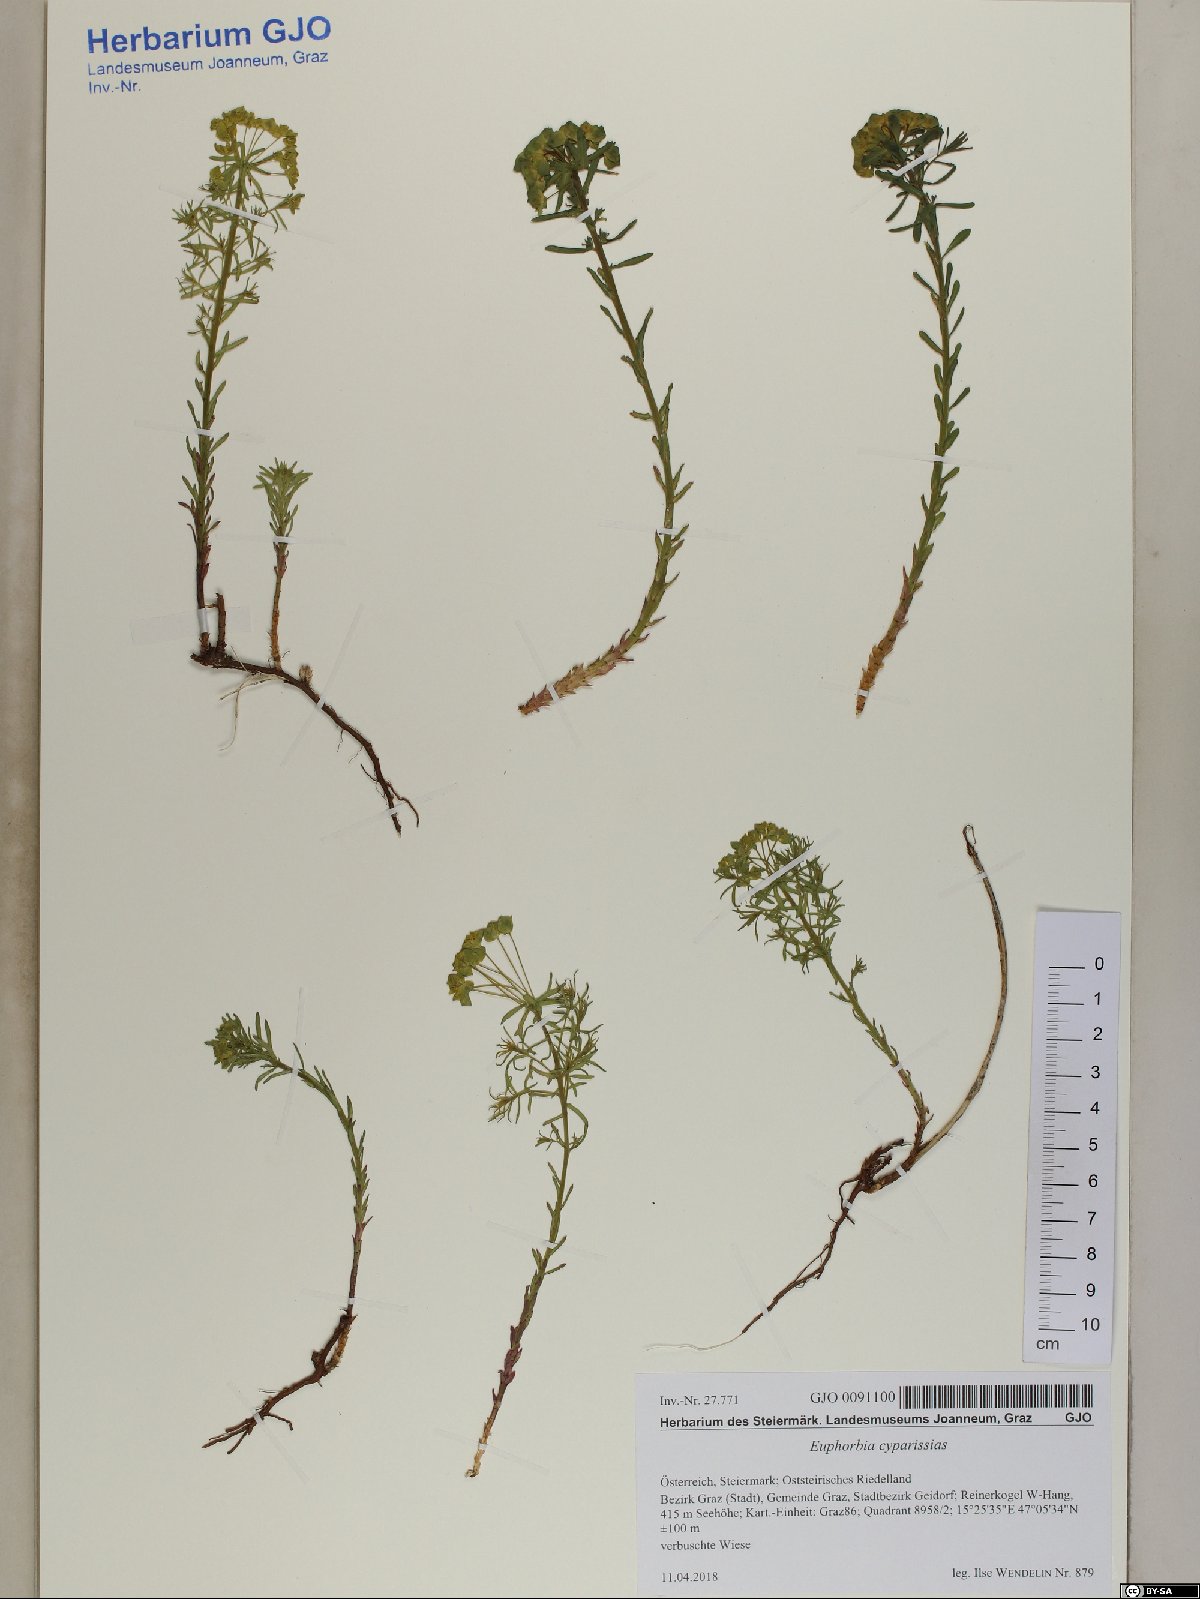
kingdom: Plantae
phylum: Tracheophyta
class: Magnoliopsida
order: Malpighiales
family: Euphorbiaceae
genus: Euphorbia
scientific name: Euphorbia cyparissias
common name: Cypress spurge
